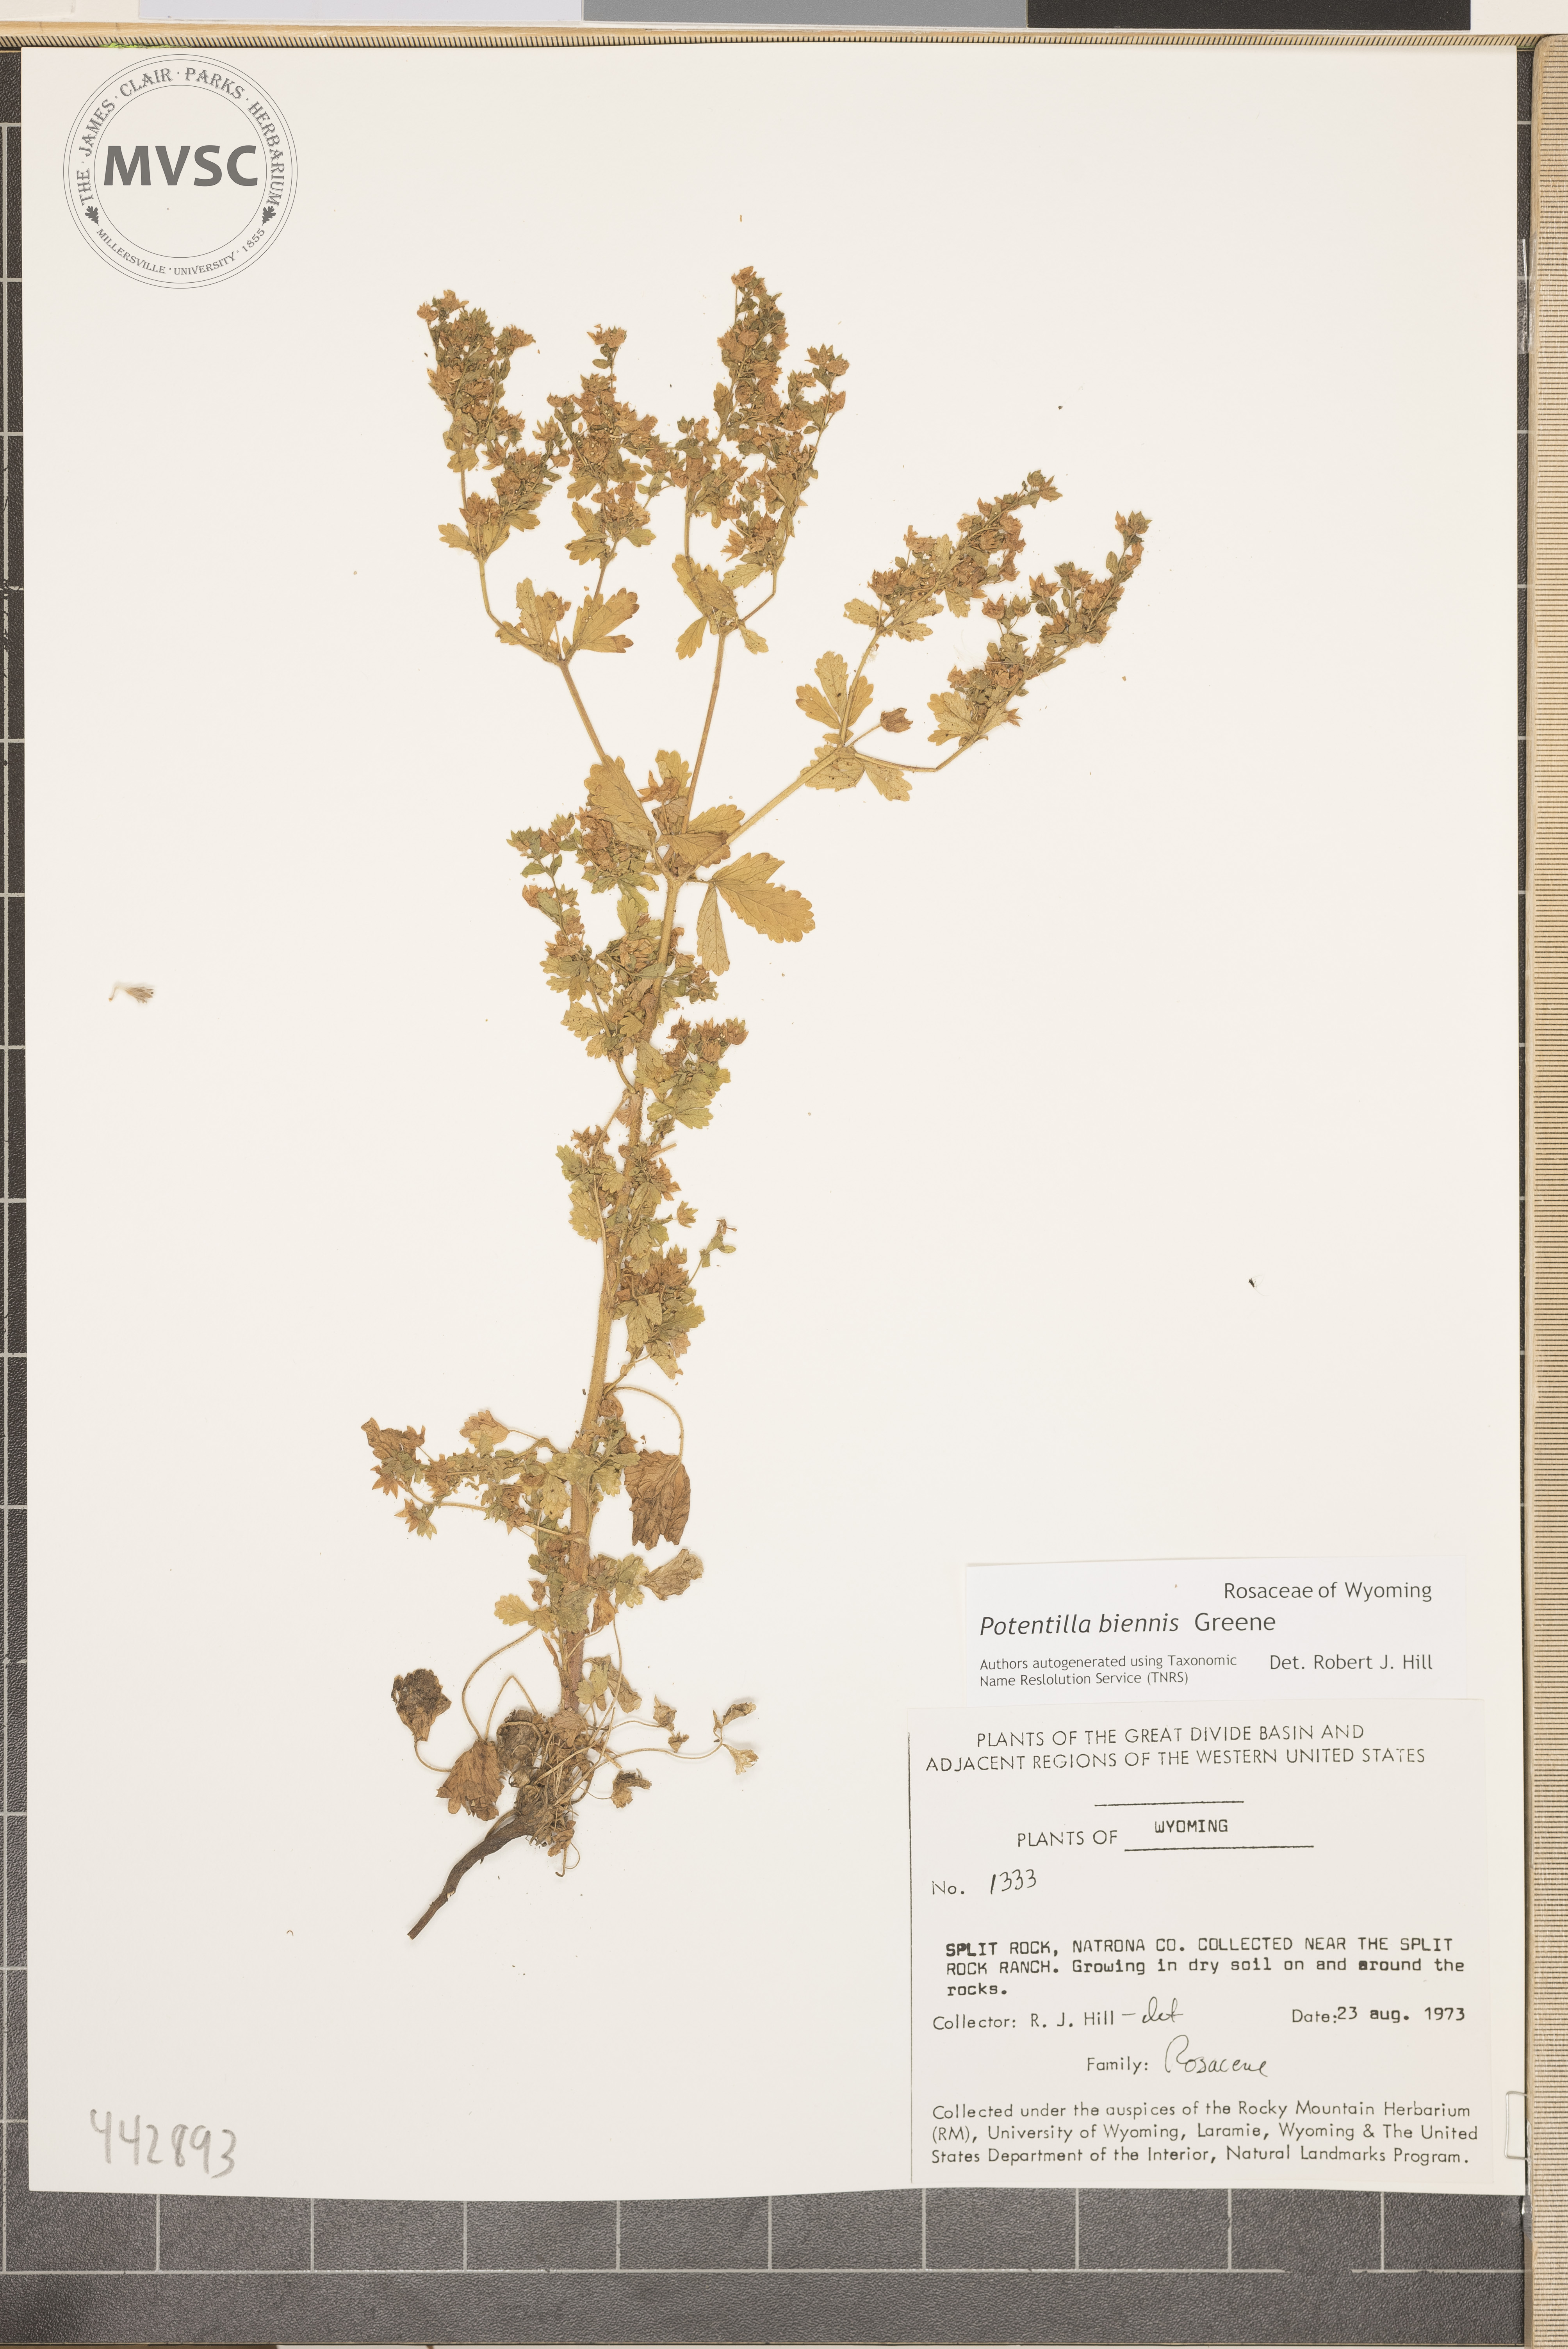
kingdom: Plantae
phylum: Tracheophyta
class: Magnoliopsida
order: Rosales
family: Rosaceae
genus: Potentilla
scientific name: Potentilla biennis
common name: Greene's cinquefoil
